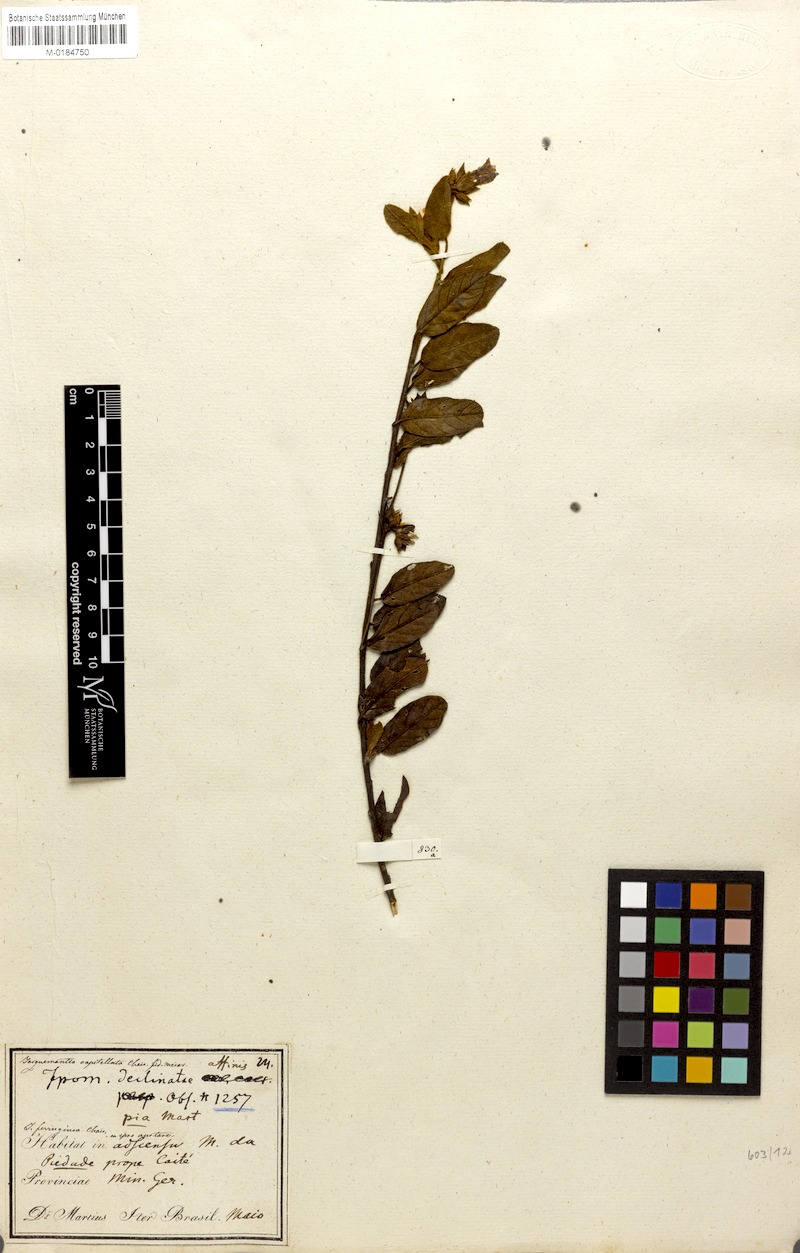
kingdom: Plantae
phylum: Tracheophyta
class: Magnoliopsida
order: Solanales
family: Convolvulaceae
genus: Jacquemontia
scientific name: Jacquemontia prostrata
